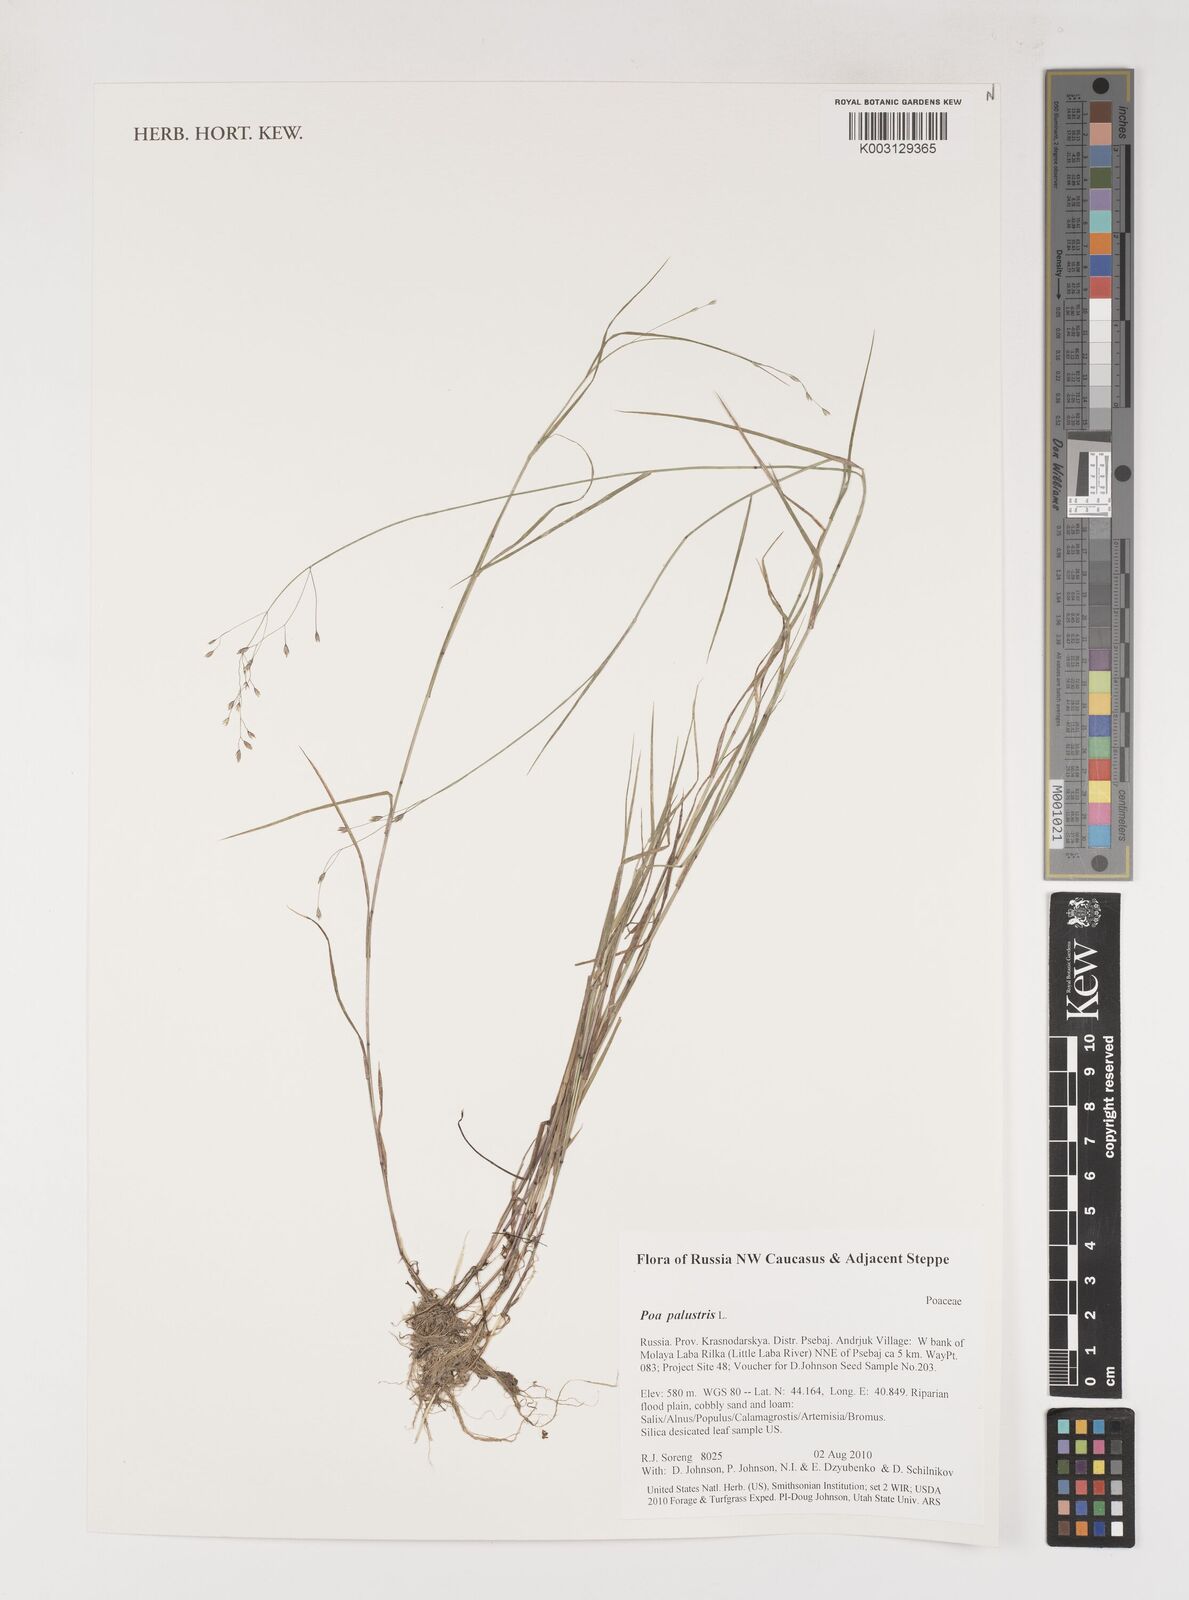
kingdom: Plantae
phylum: Tracheophyta
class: Liliopsida
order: Poales
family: Poaceae
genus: Poa
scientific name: Poa palustris
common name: Swamp meadow-grass
